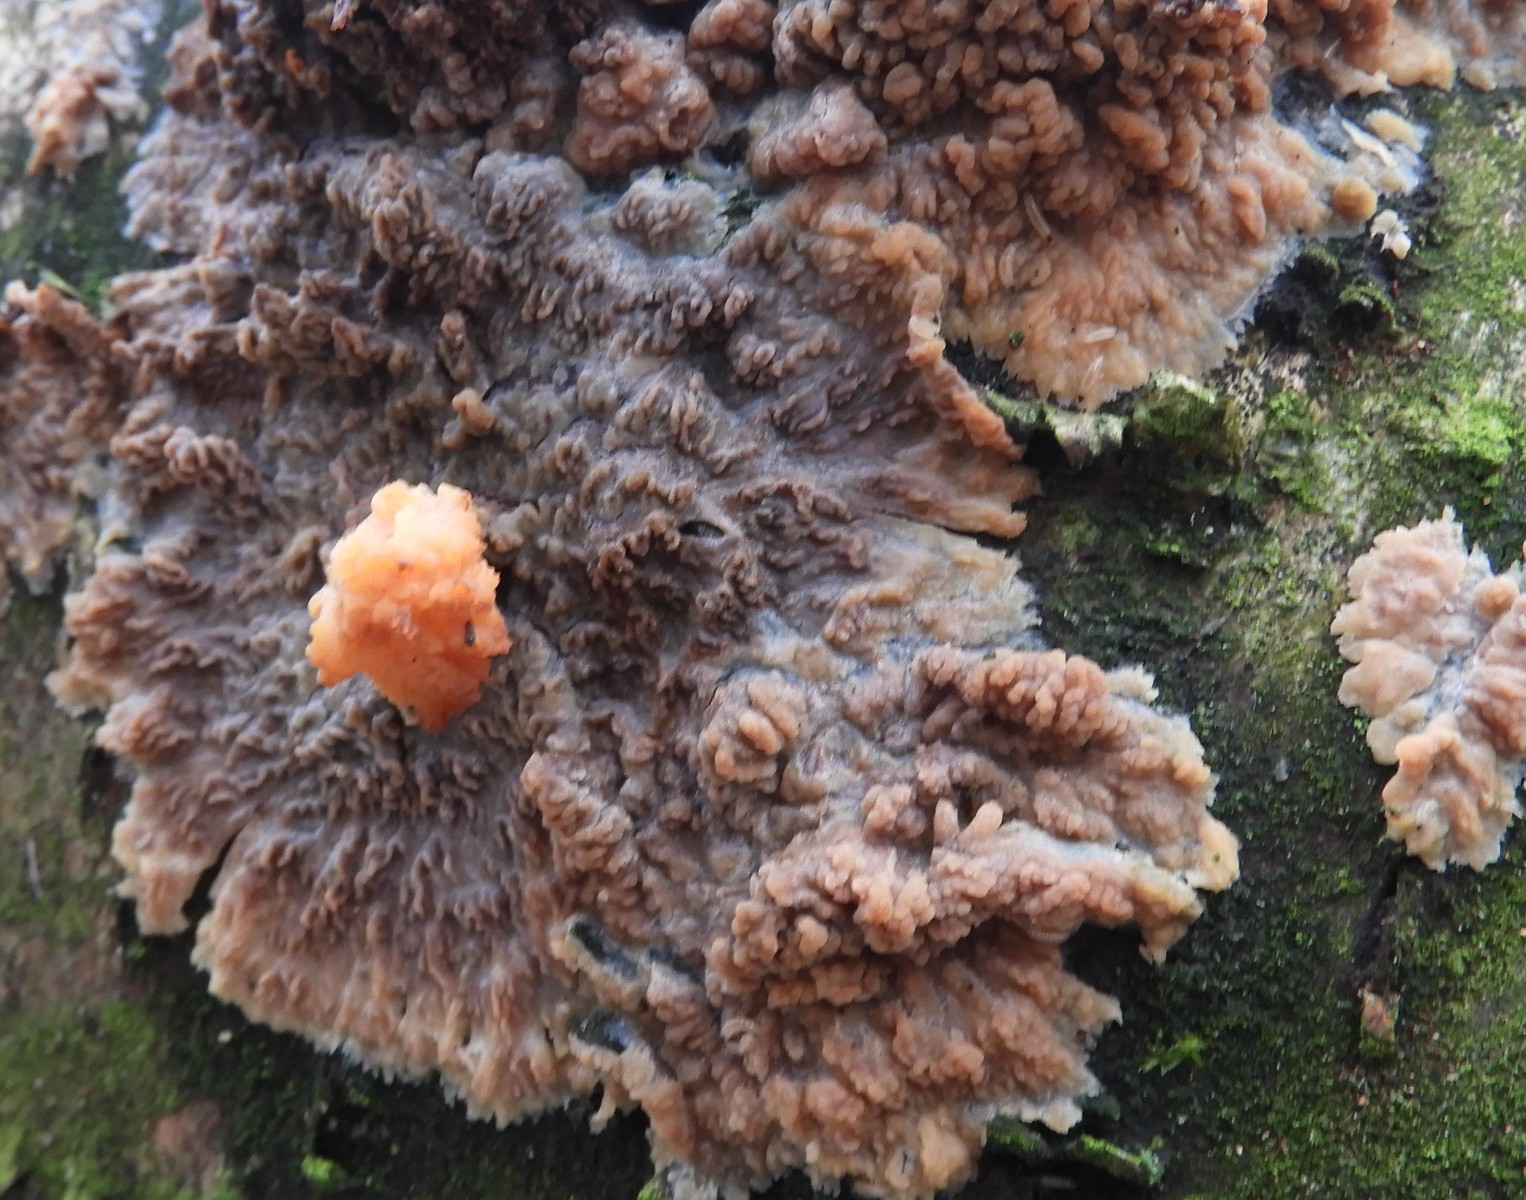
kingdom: Fungi
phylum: Basidiomycota
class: Agaricomycetes
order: Polyporales
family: Meruliaceae
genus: Phlebia
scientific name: Phlebia radiata
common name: stråle-åresvamp
